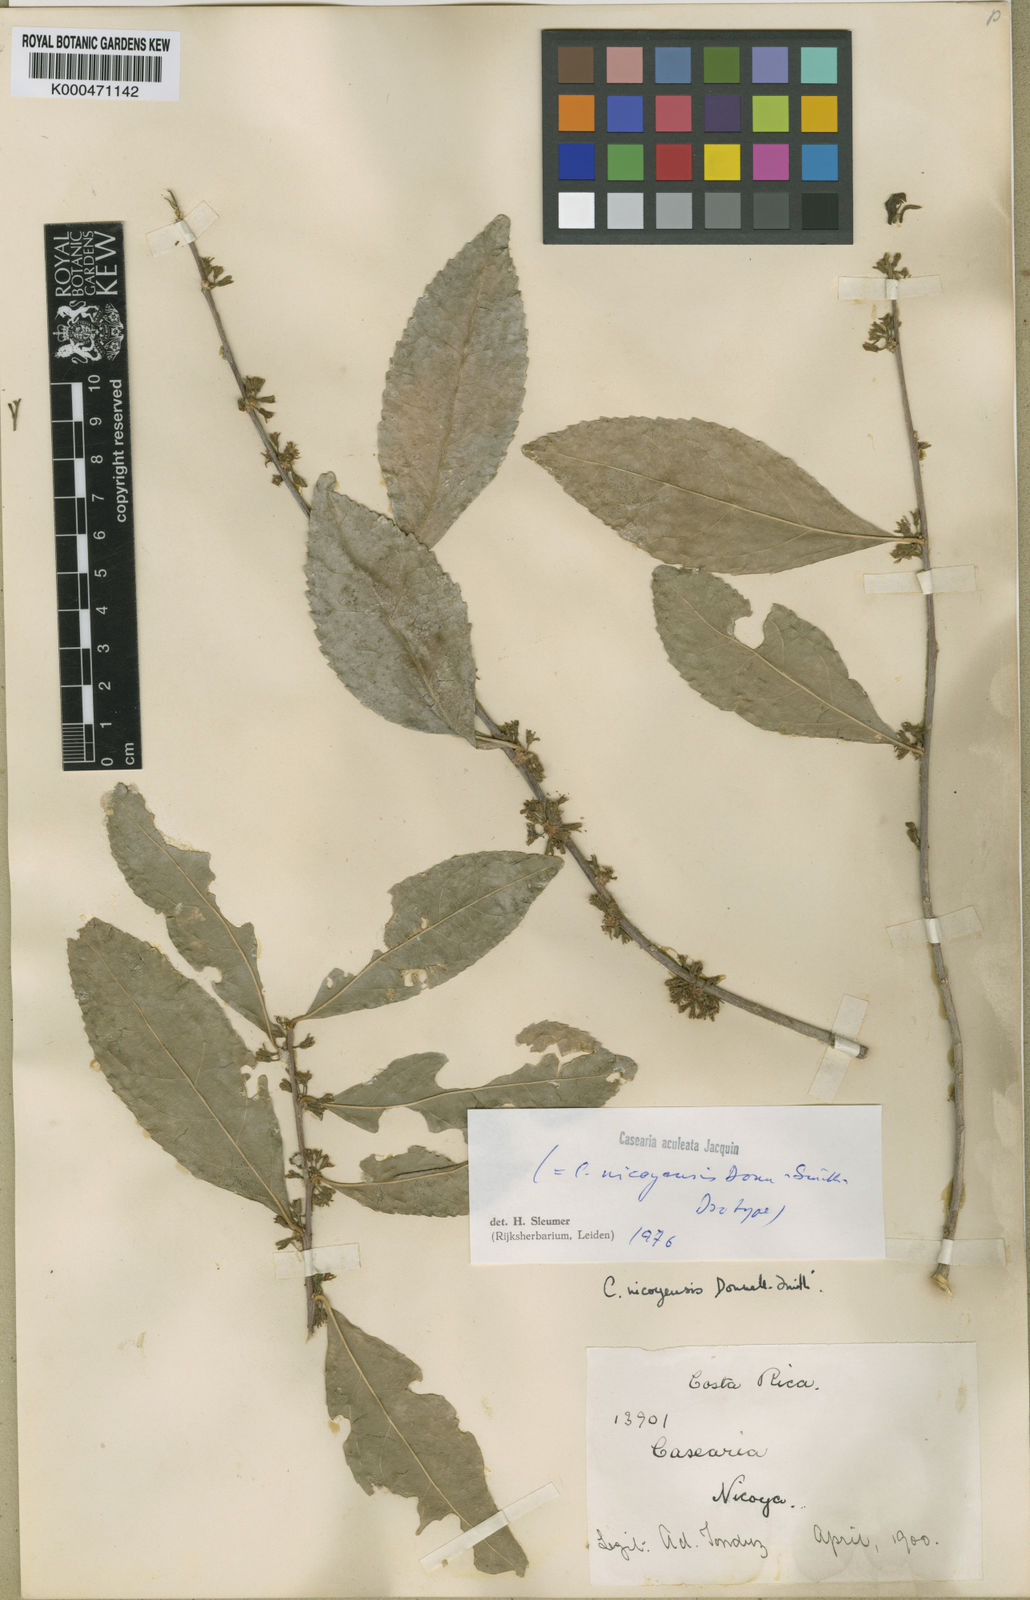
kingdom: Plantae
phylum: Tracheophyta
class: Magnoliopsida
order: Malpighiales
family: Salicaceae
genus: Casearia
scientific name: Casearia aculeata
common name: Cockspur
